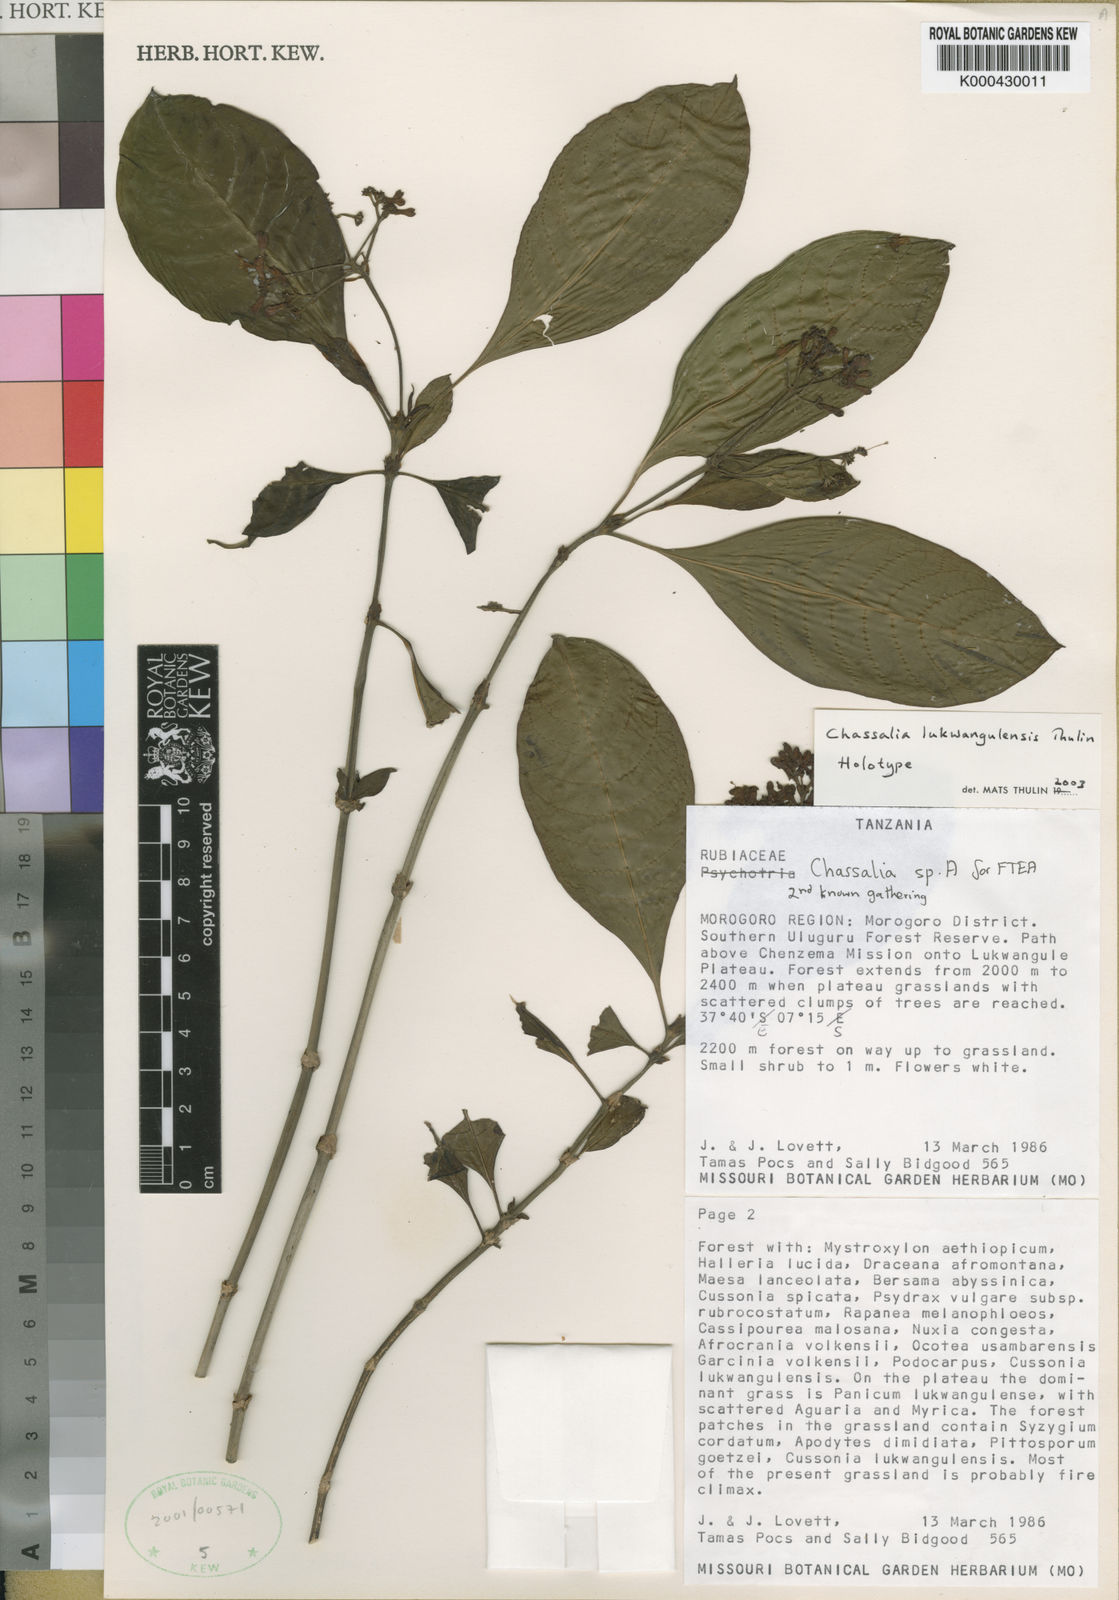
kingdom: Plantae
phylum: Tracheophyta
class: Magnoliopsida
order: Gentianales
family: Rubiaceae
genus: Chassalia
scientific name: Chassalia lukwangulensis
